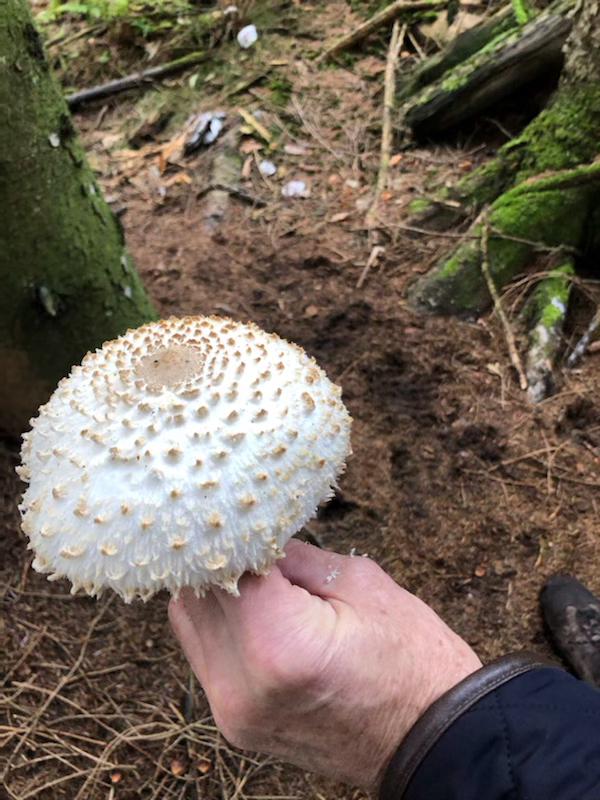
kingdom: Fungi
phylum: Basidiomycota
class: Agaricomycetes
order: Agaricales
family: Agaricaceae
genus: Leucoagaricus
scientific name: Leucoagaricus nympharum
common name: gran-silkehat
